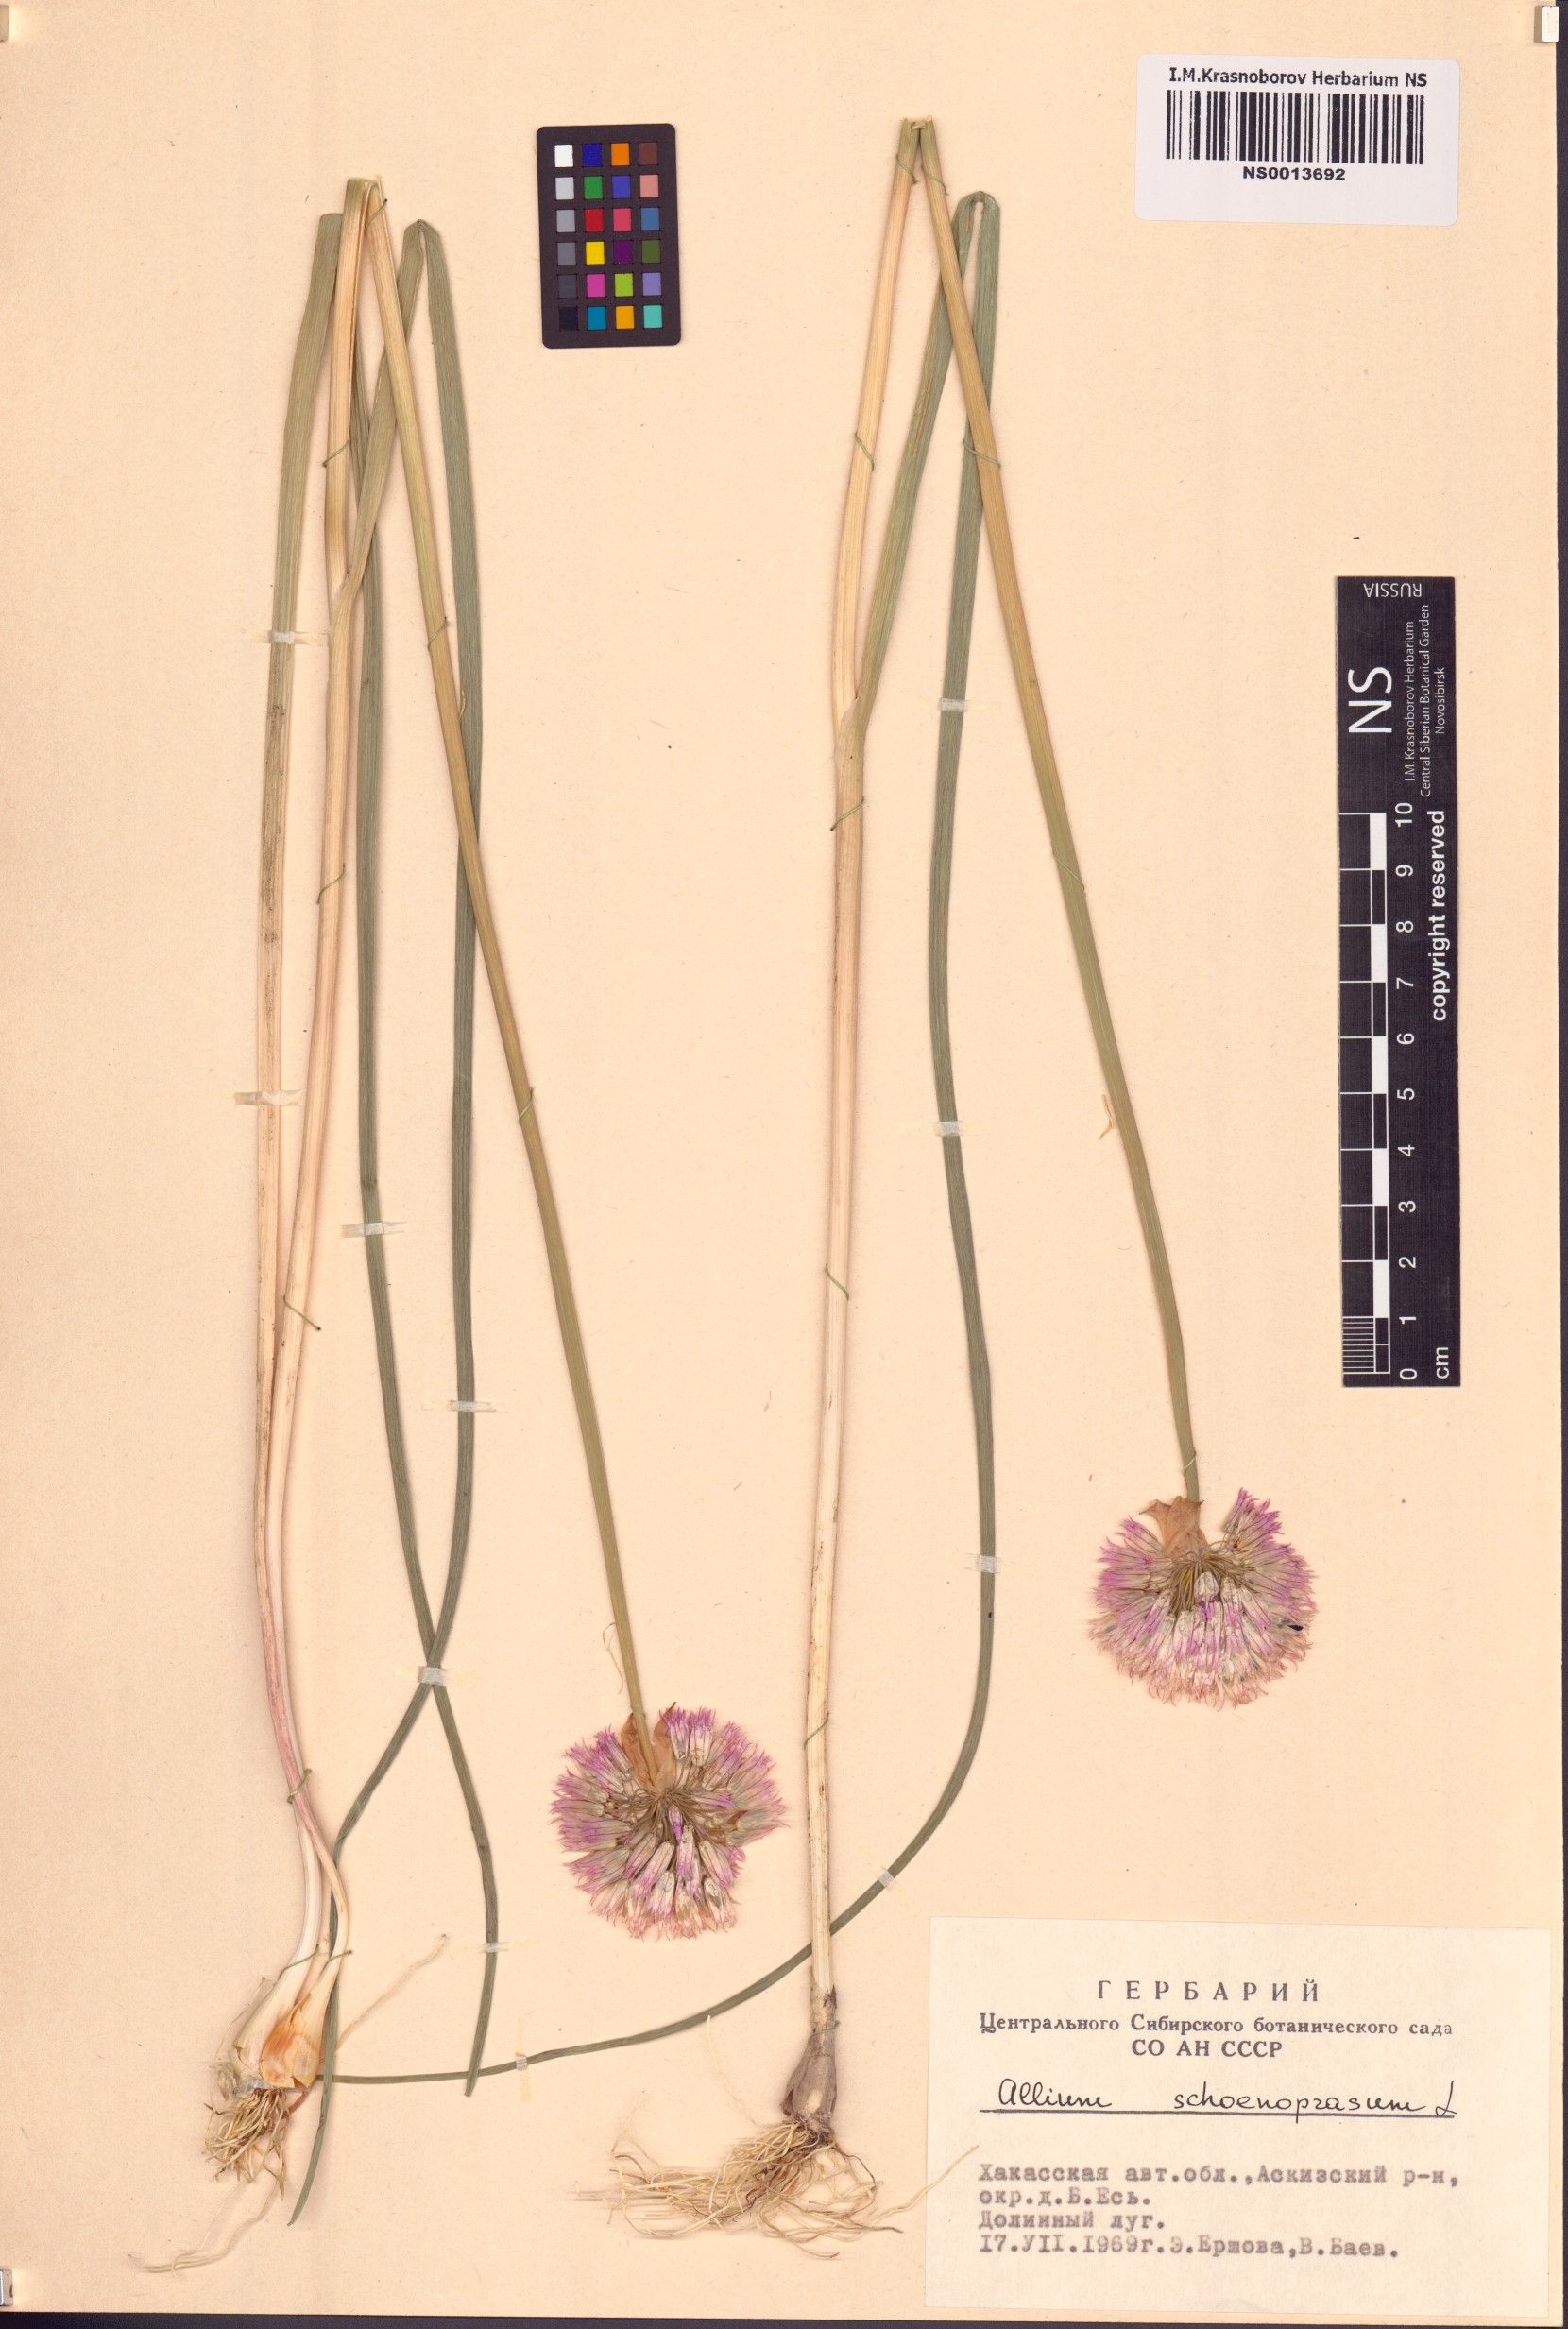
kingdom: Plantae
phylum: Tracheophyta
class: Liliopsida
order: Asparagales
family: Amaryllidaceae
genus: Allium
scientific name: Allium schoenoprasum
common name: Chives
